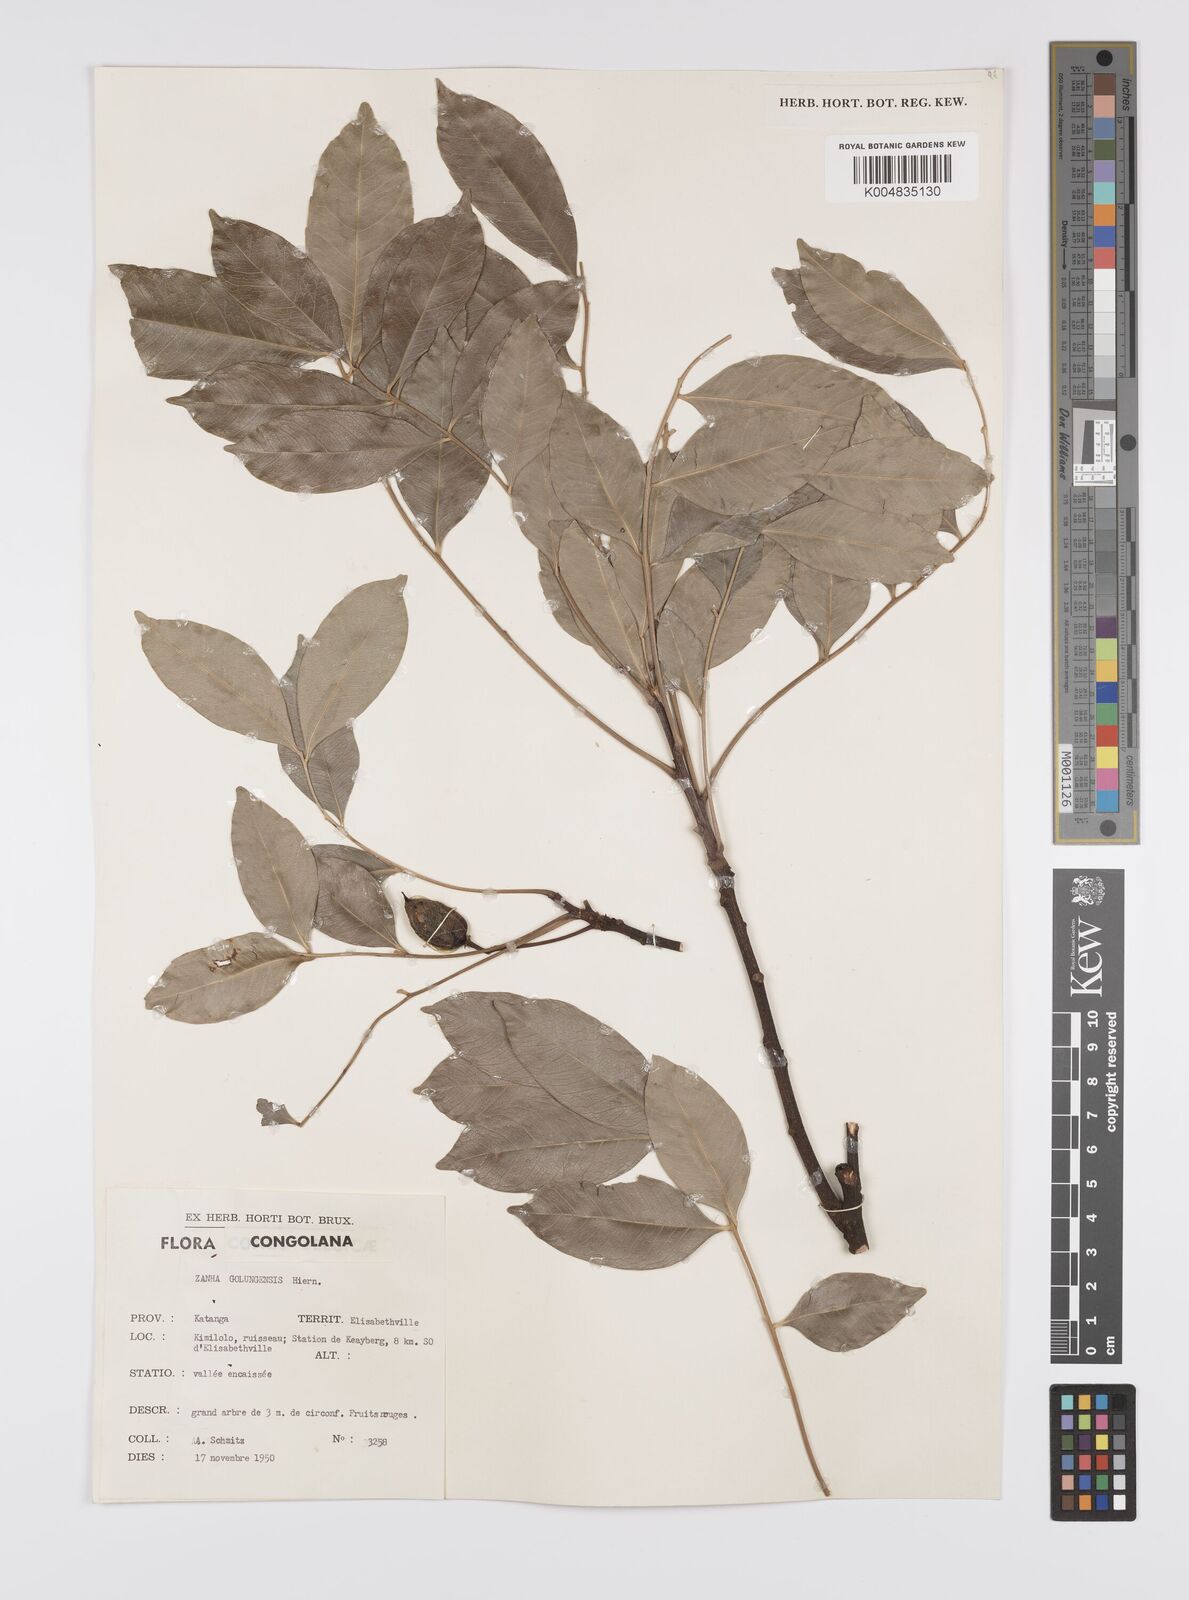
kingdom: Plantae
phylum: Tracheophyta
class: Magnoliopsida
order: Sapindales
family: Sapindaceae
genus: Zanha
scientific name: Zanha golungensis
